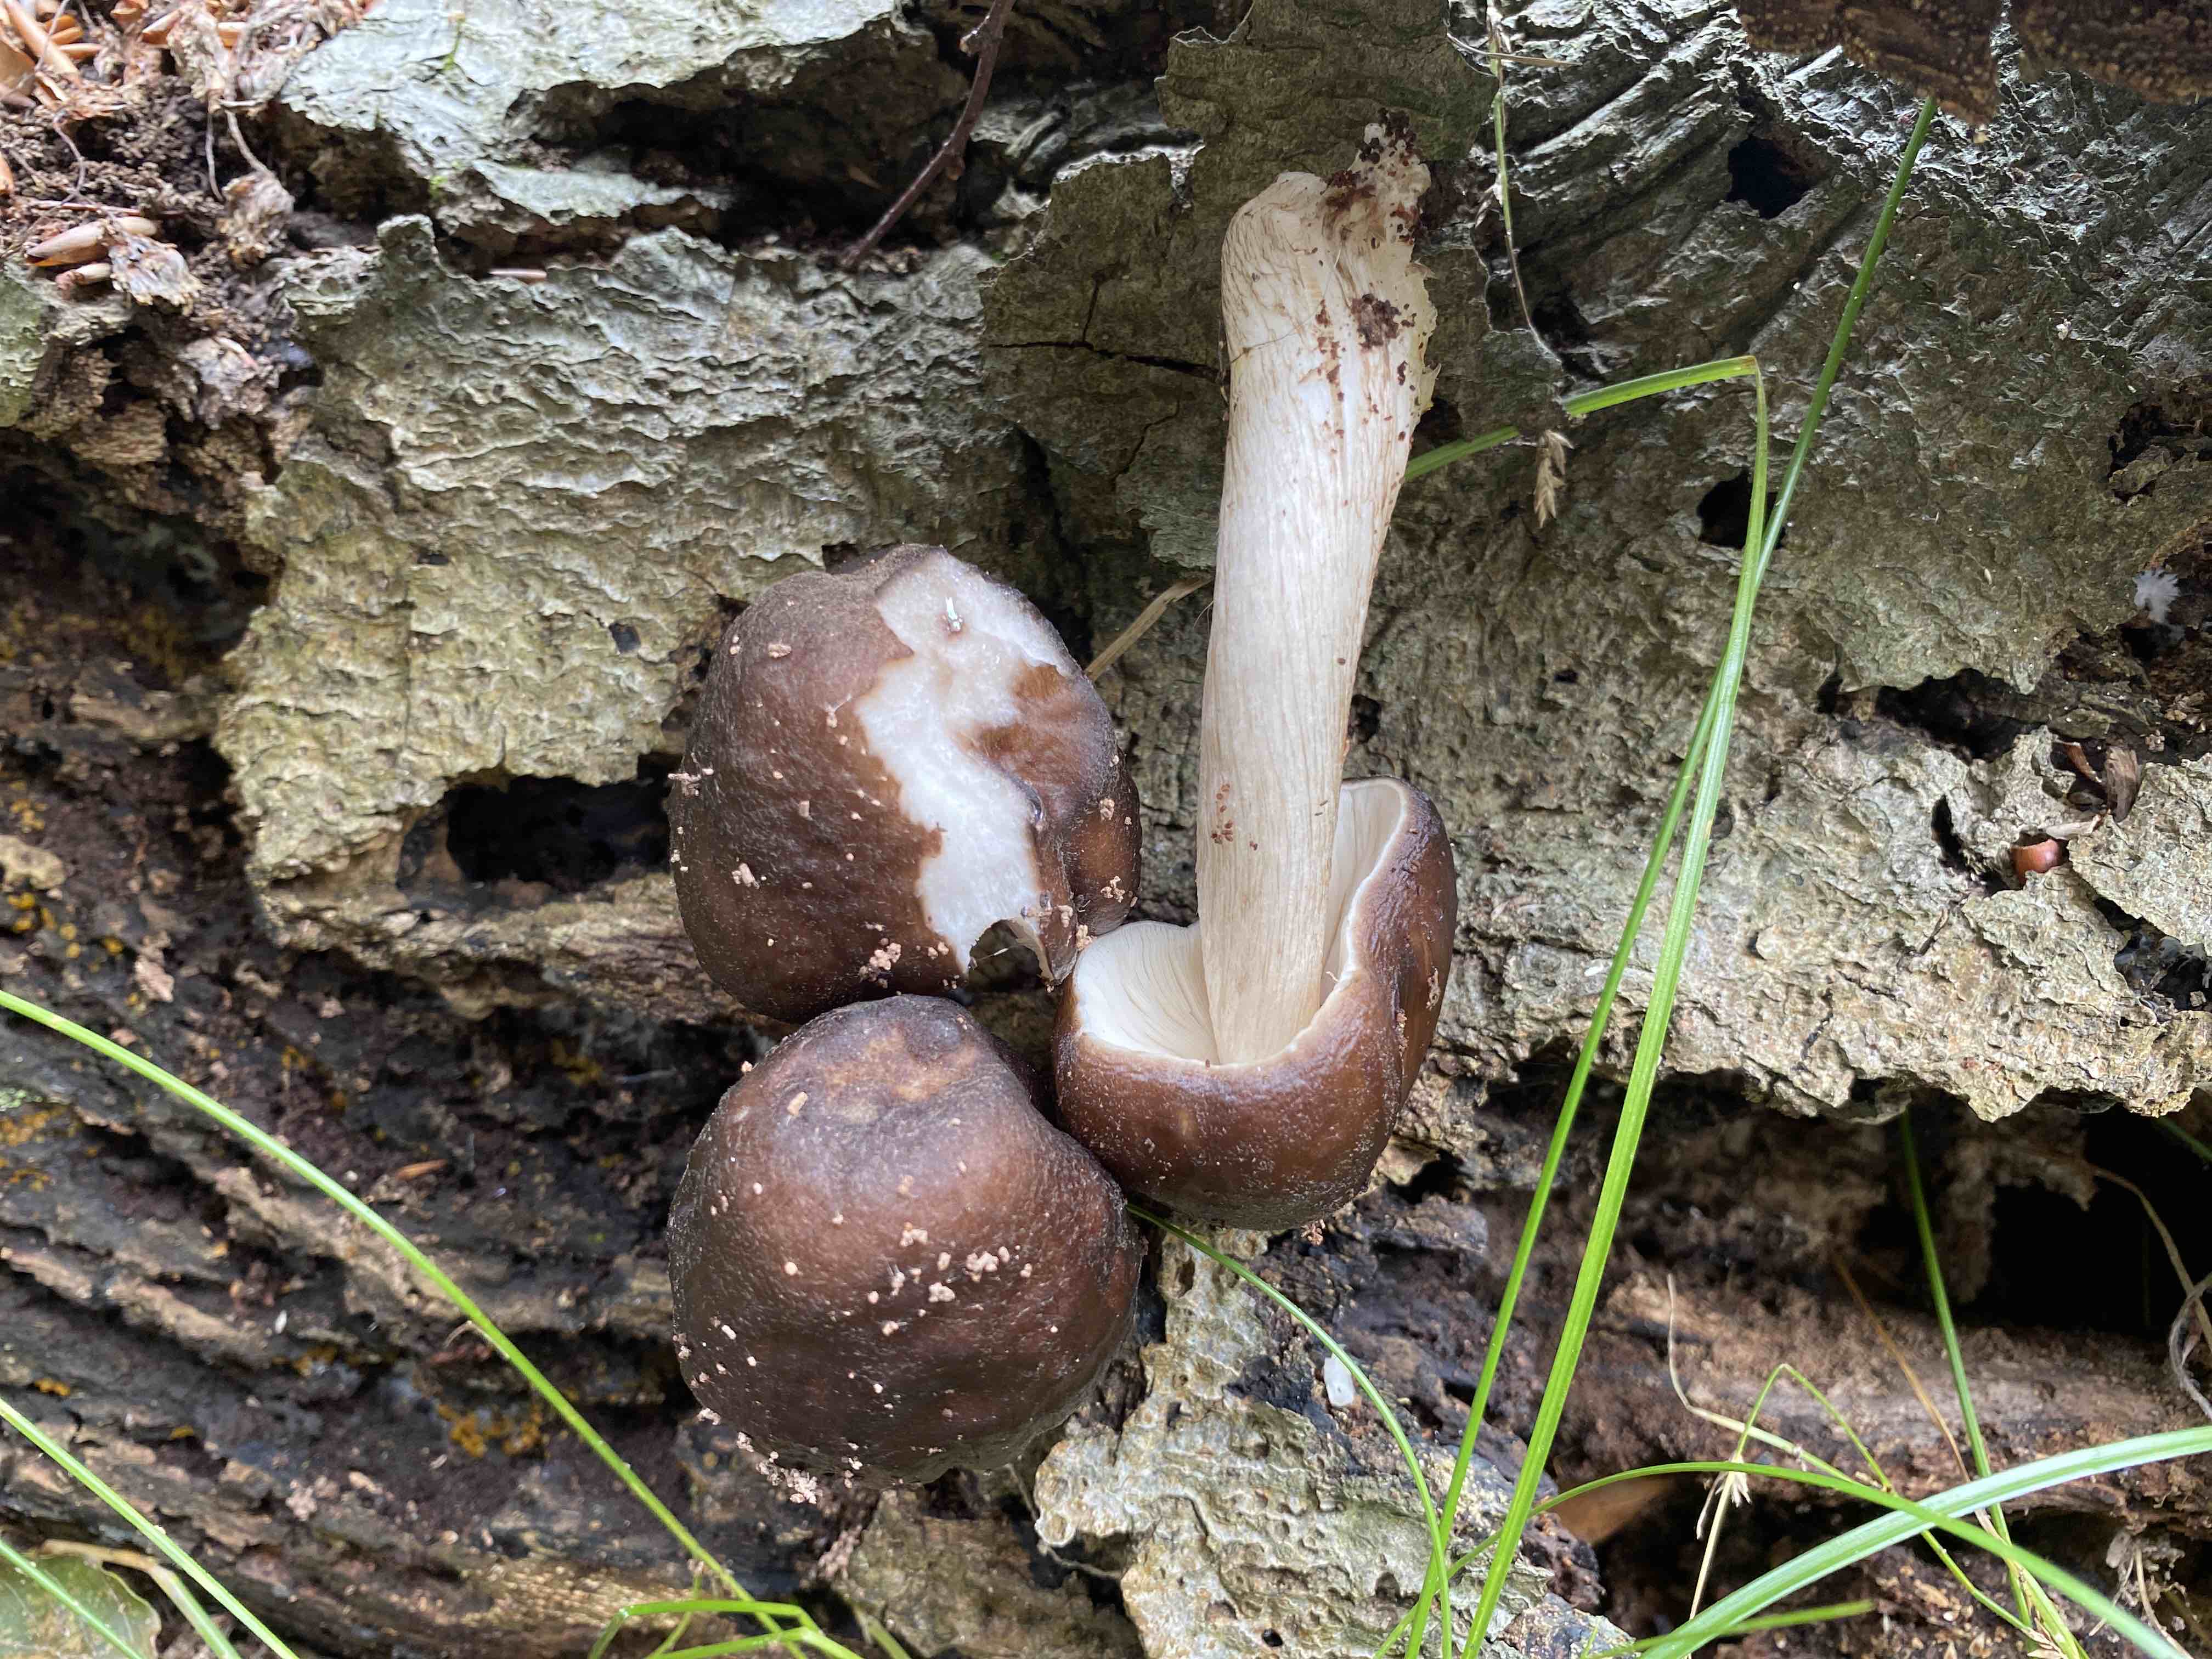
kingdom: Fungi
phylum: Basidiomycota
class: Agaricomycetes
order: Agaricales
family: Pluteaceae
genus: Pluteus
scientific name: Pluteus cervinus
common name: sodfarvet skærmhat
